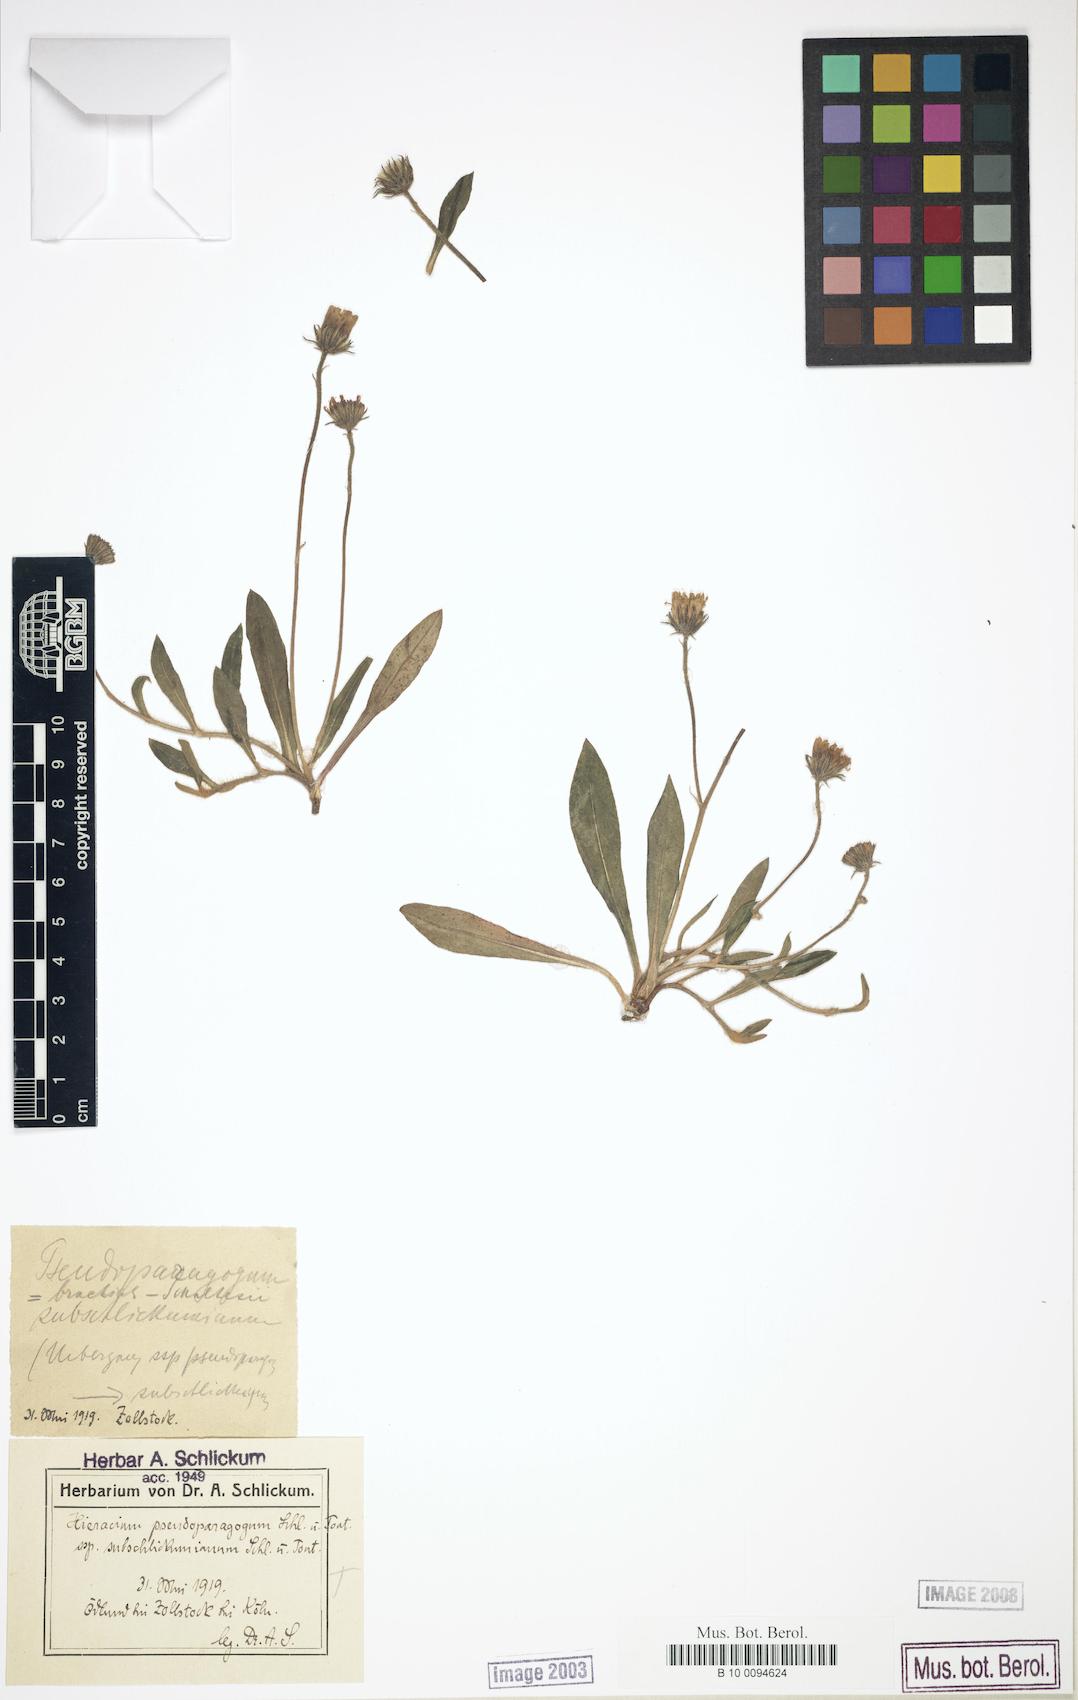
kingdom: Plantae
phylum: Tracheophyta
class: Magnoliopsida
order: Asterales
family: Asteraceae
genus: Pilosella
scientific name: Pilosella pseudoparagoga
